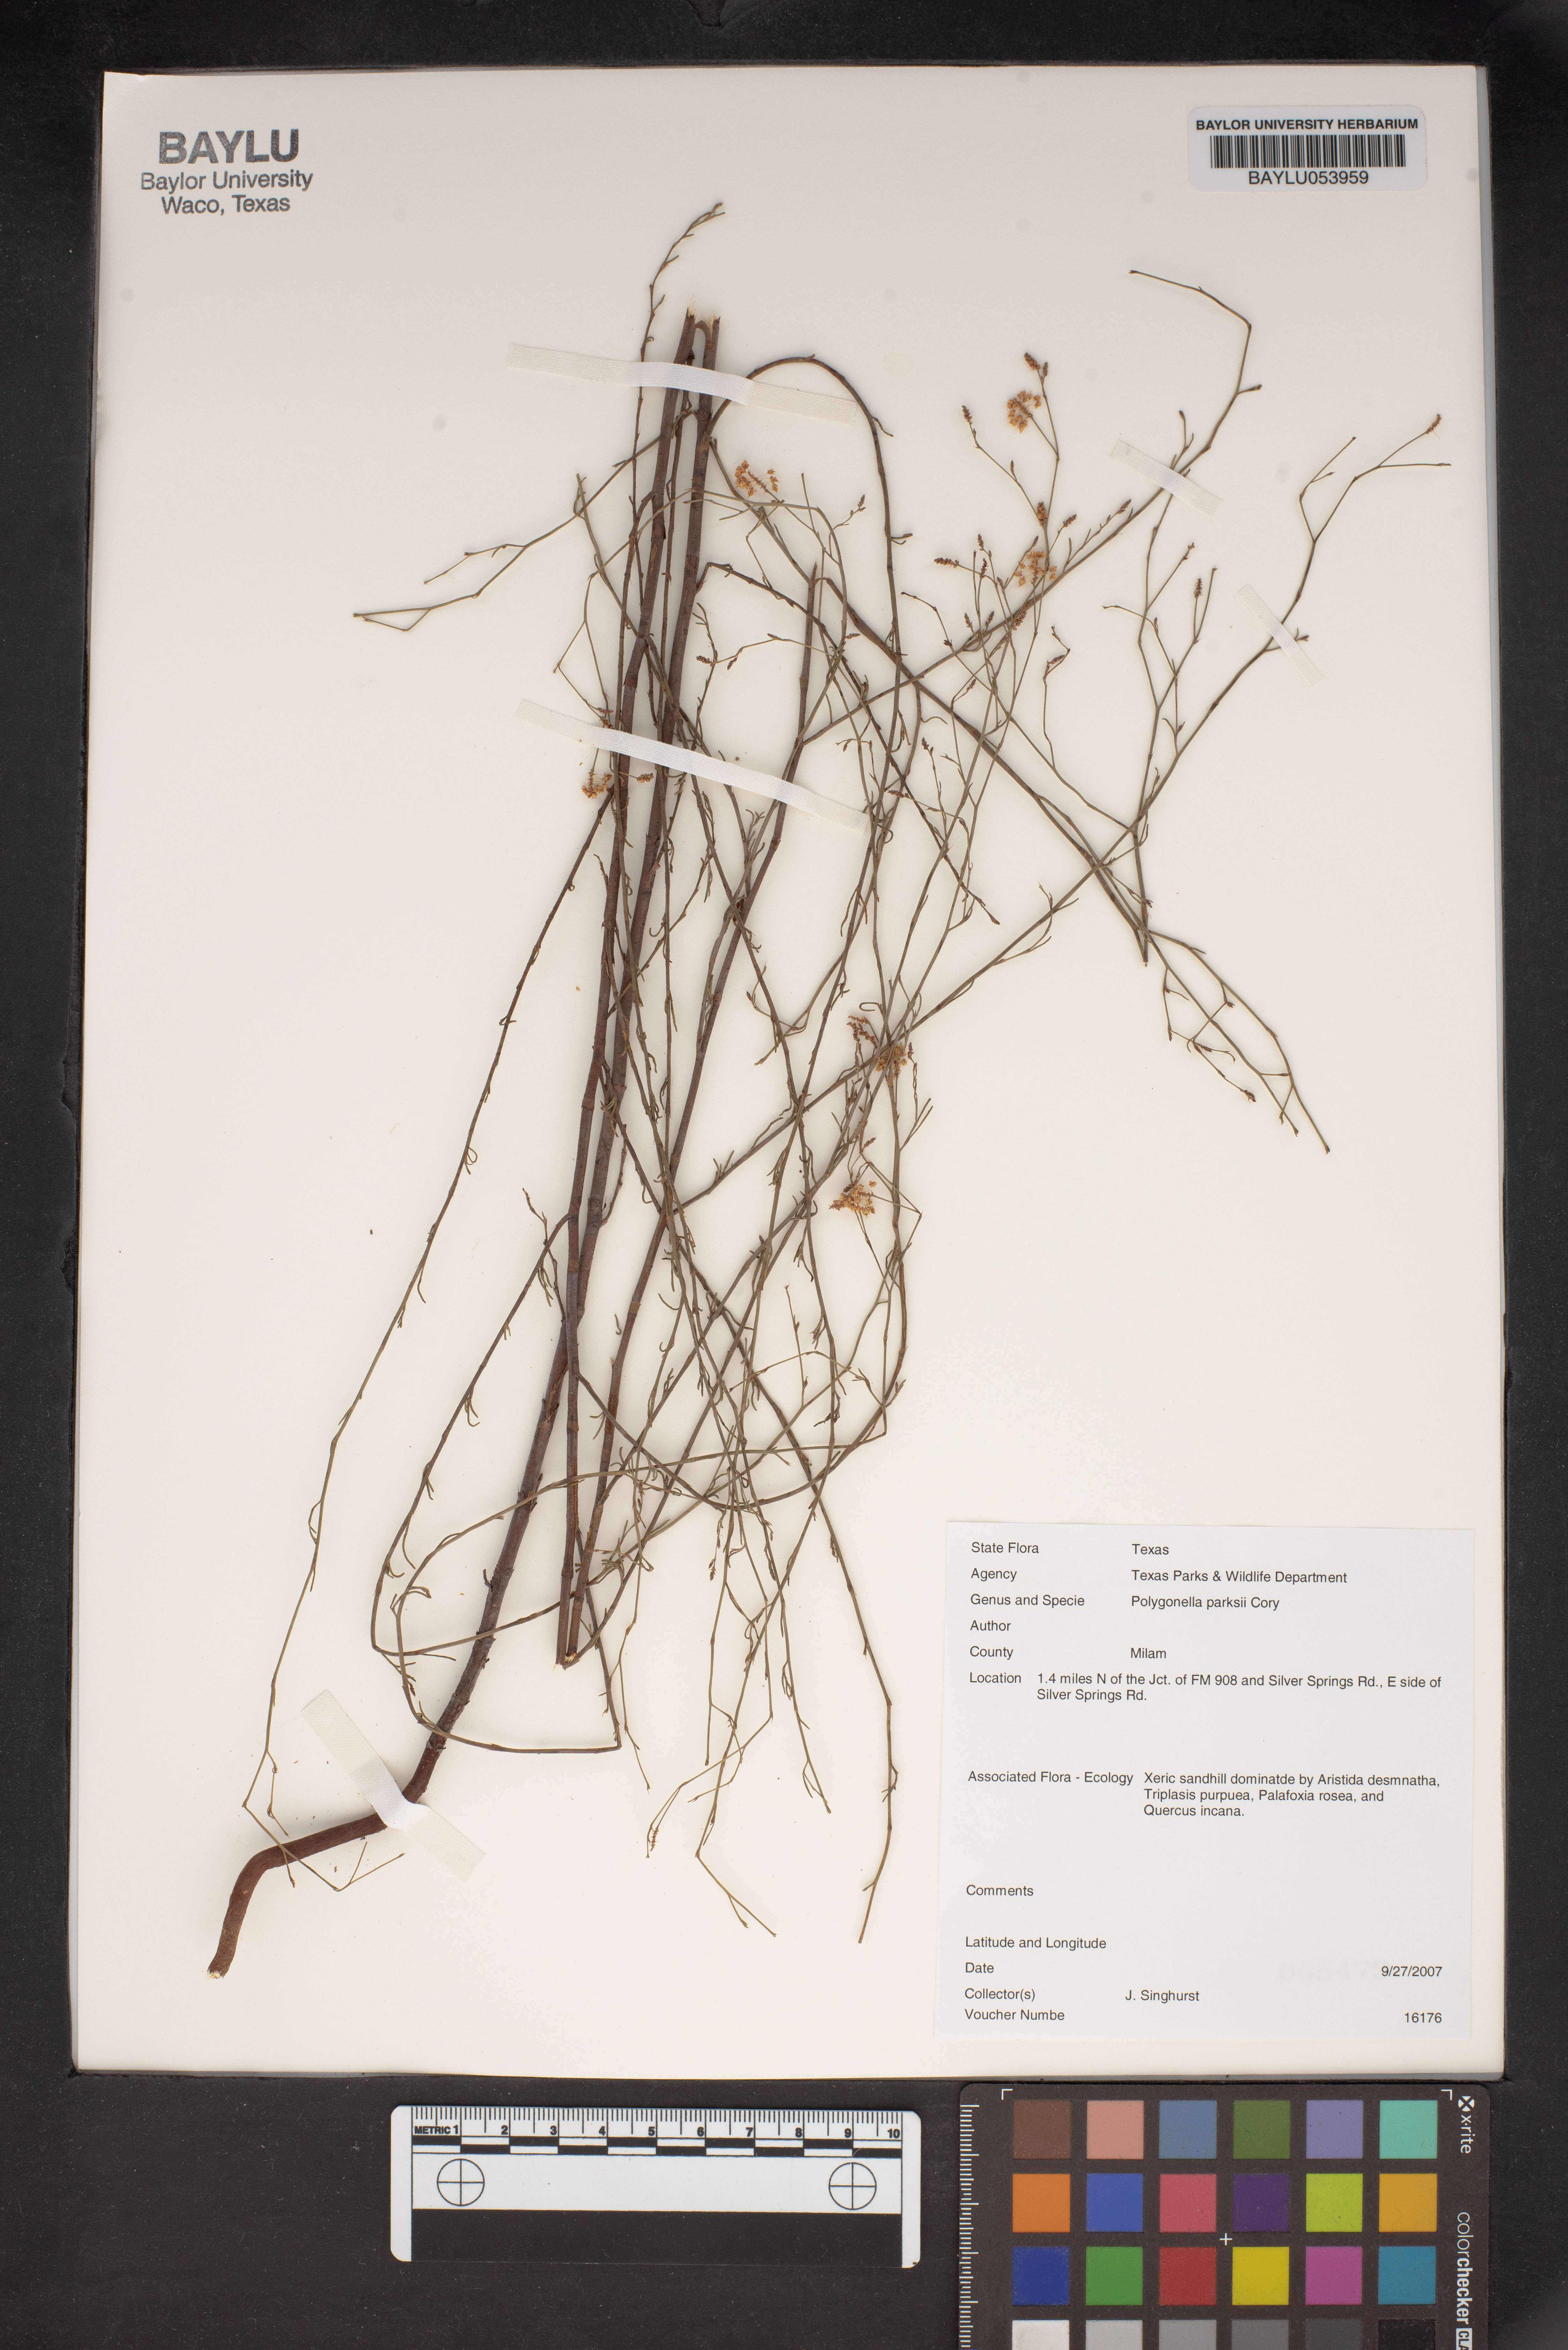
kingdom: Plantae
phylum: Tracheophyta
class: Magnoliopsida
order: Caryophyllales
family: Polygonaceae
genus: Polygonella
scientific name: Polygonella parksii
